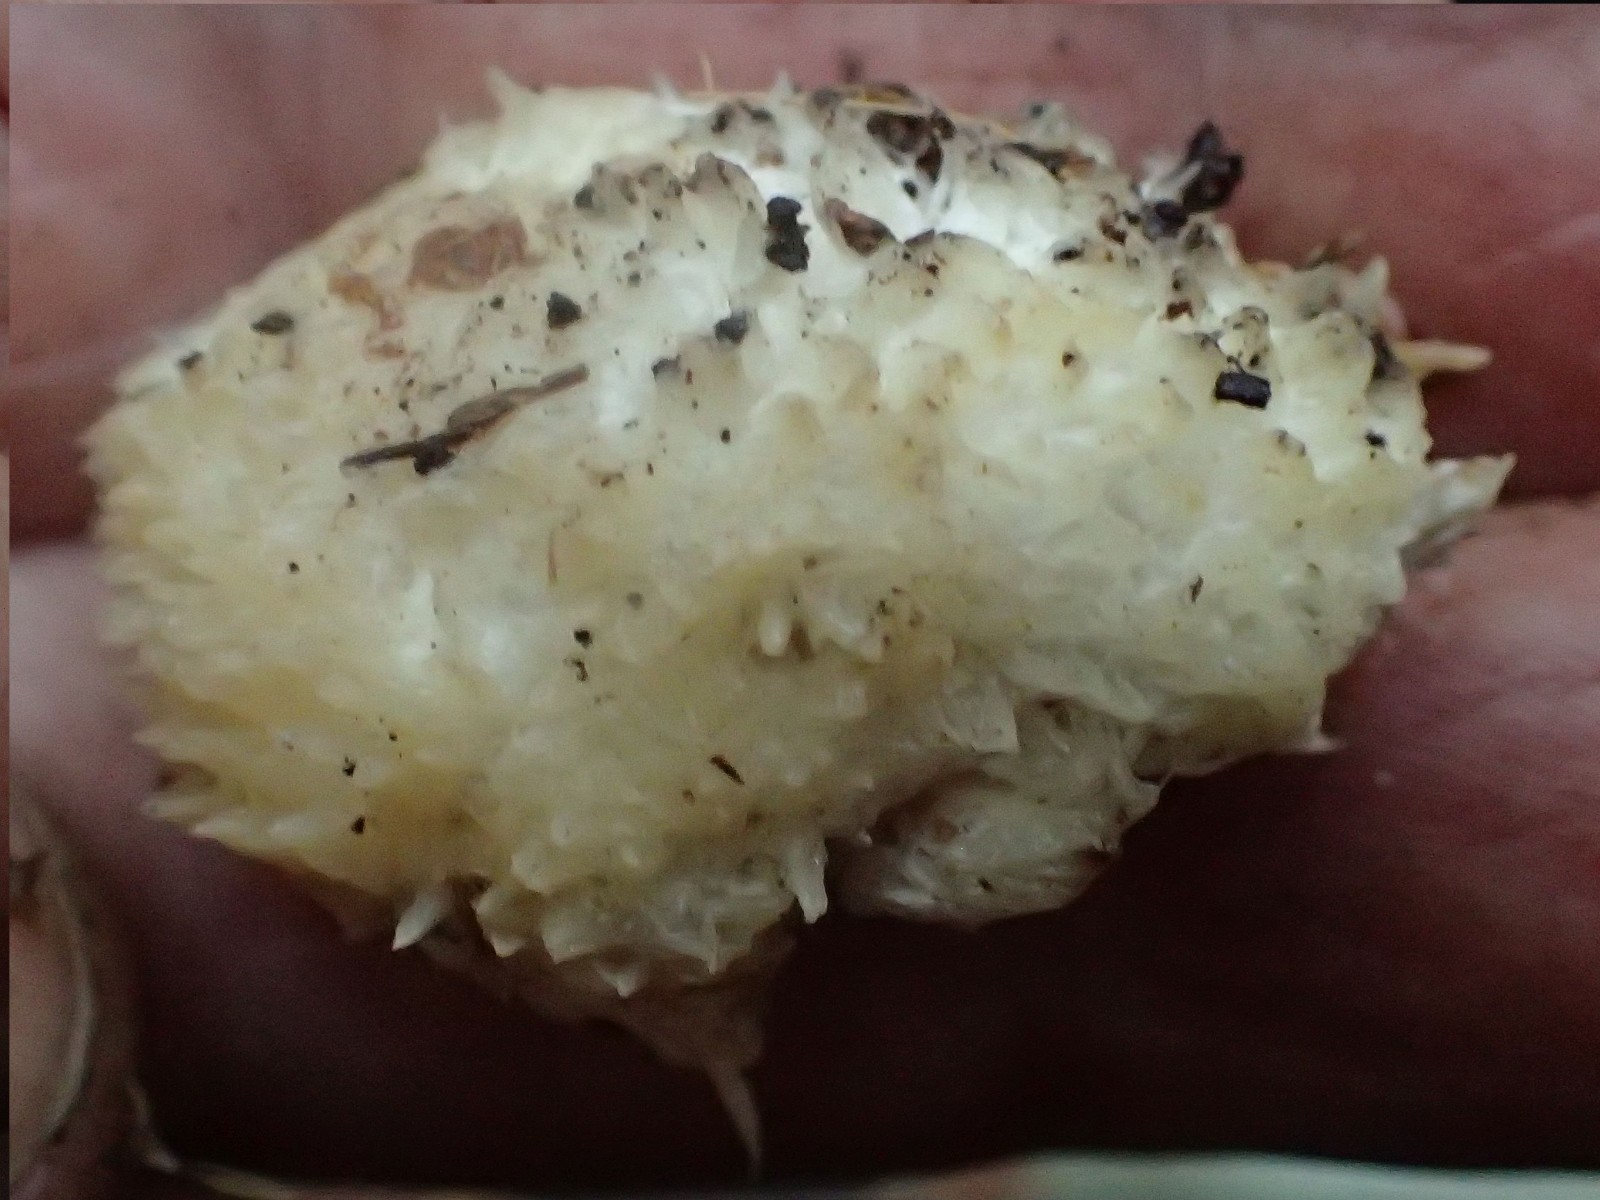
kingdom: Fungi
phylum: Basidiomycota
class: Agaricomycetes
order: Polyporales
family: Dacryobolaceae
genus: Postia
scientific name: Postia ptychogaster
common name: støvende kødporesvamp
